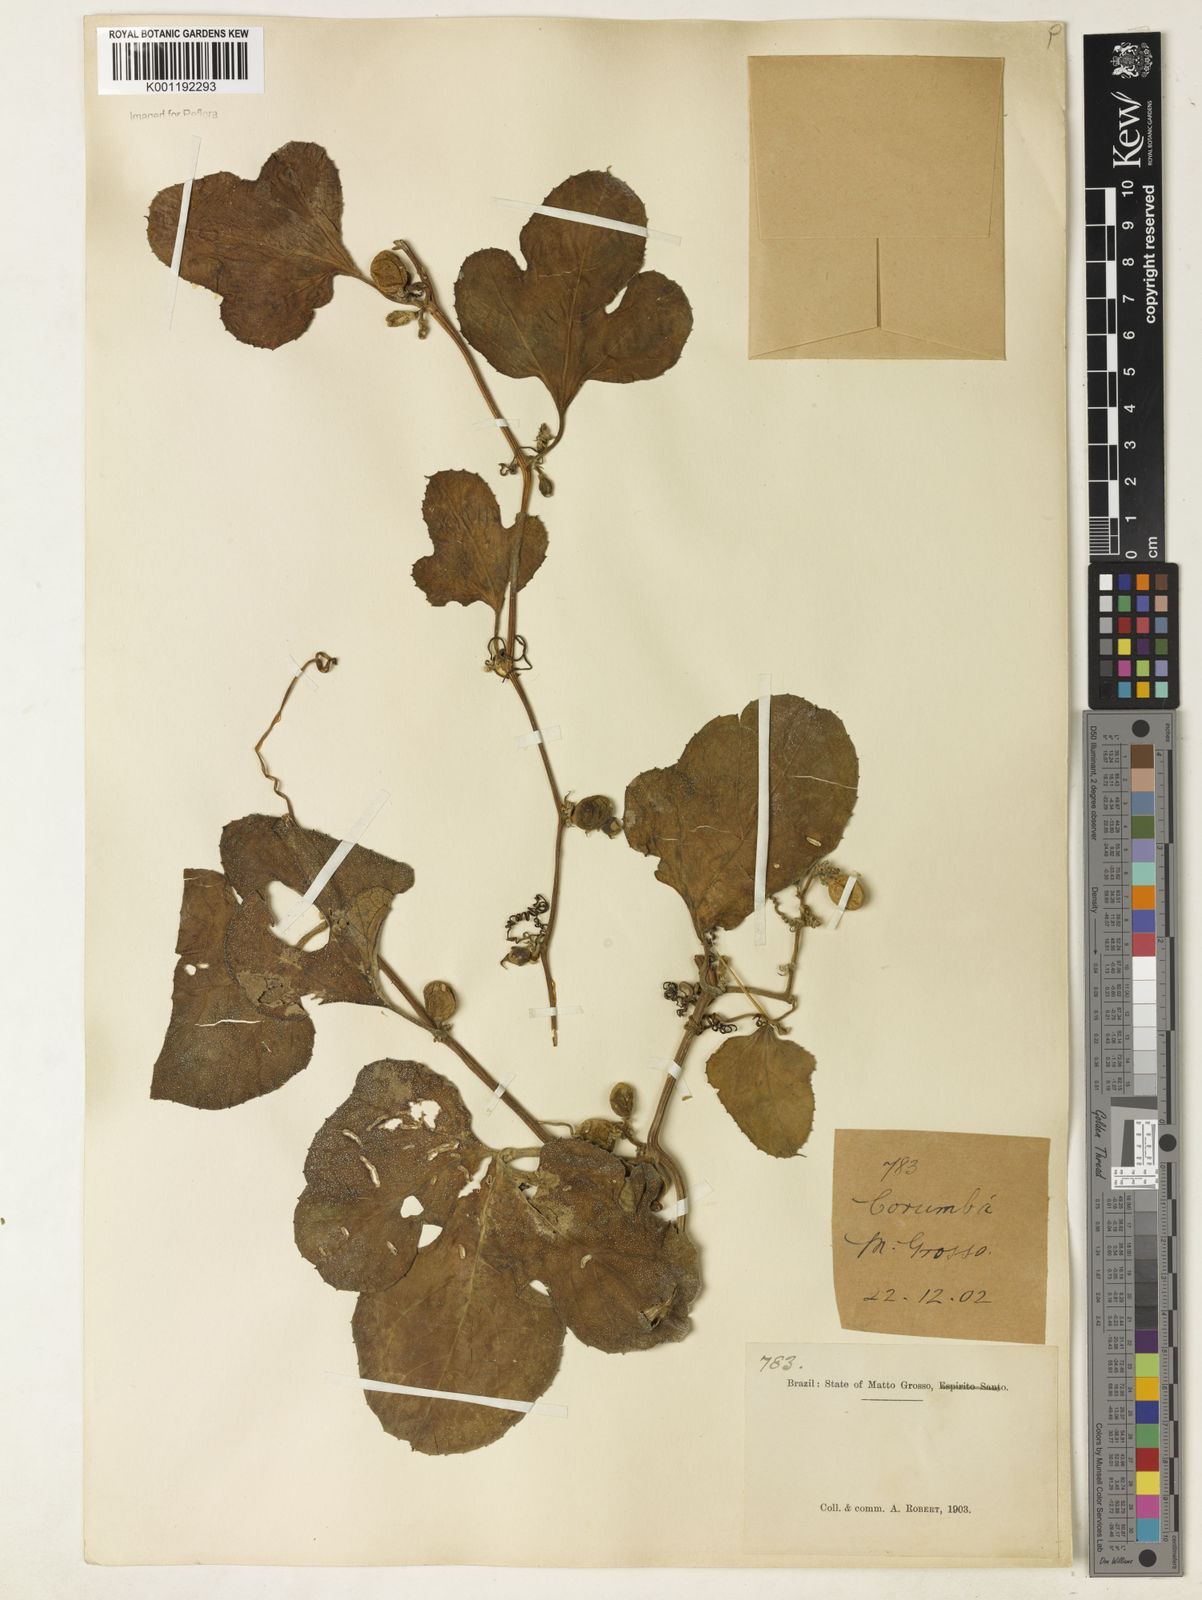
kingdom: Plantae
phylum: Tracheophyta
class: Magnoliopsida
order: Cucurbitales
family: Cucurbitaceae
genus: Cayaponia
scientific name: Cayaponia
